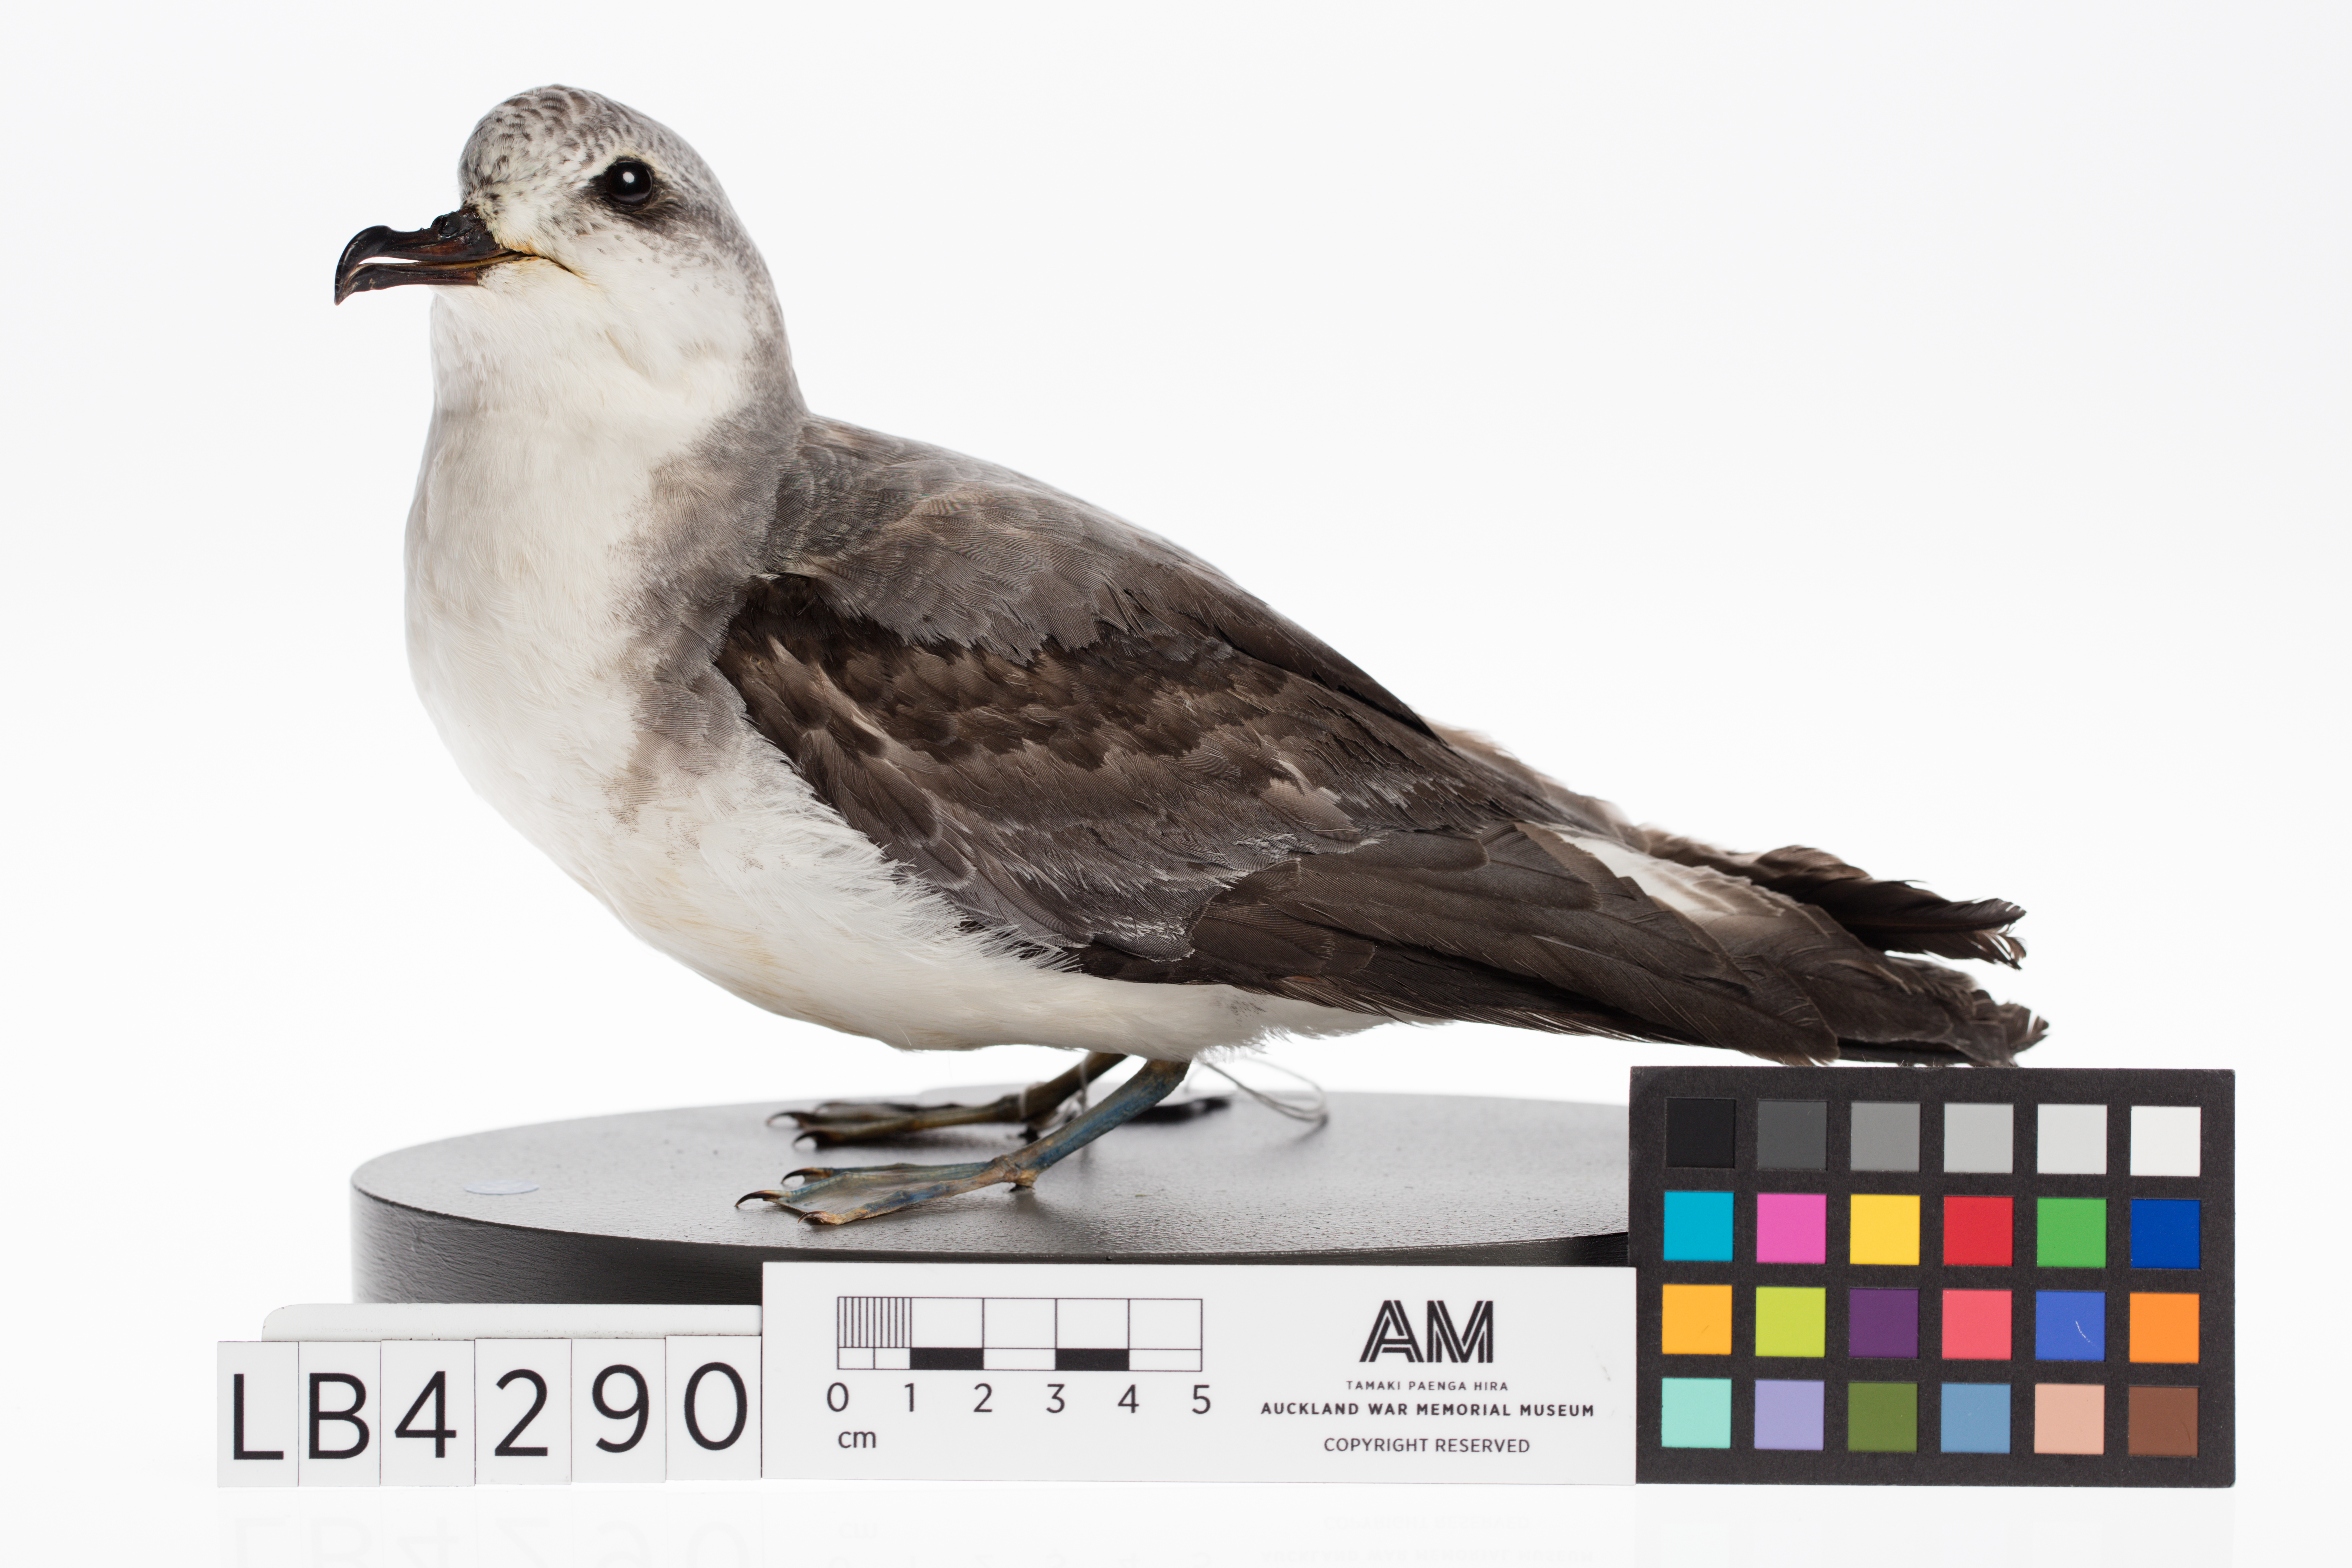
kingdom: Animalia
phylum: Chordata
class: Aves
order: Procellariiformes
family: Procellariidae
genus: Pterodroma
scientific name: Pterodroma cookii
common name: Cook's petrel
